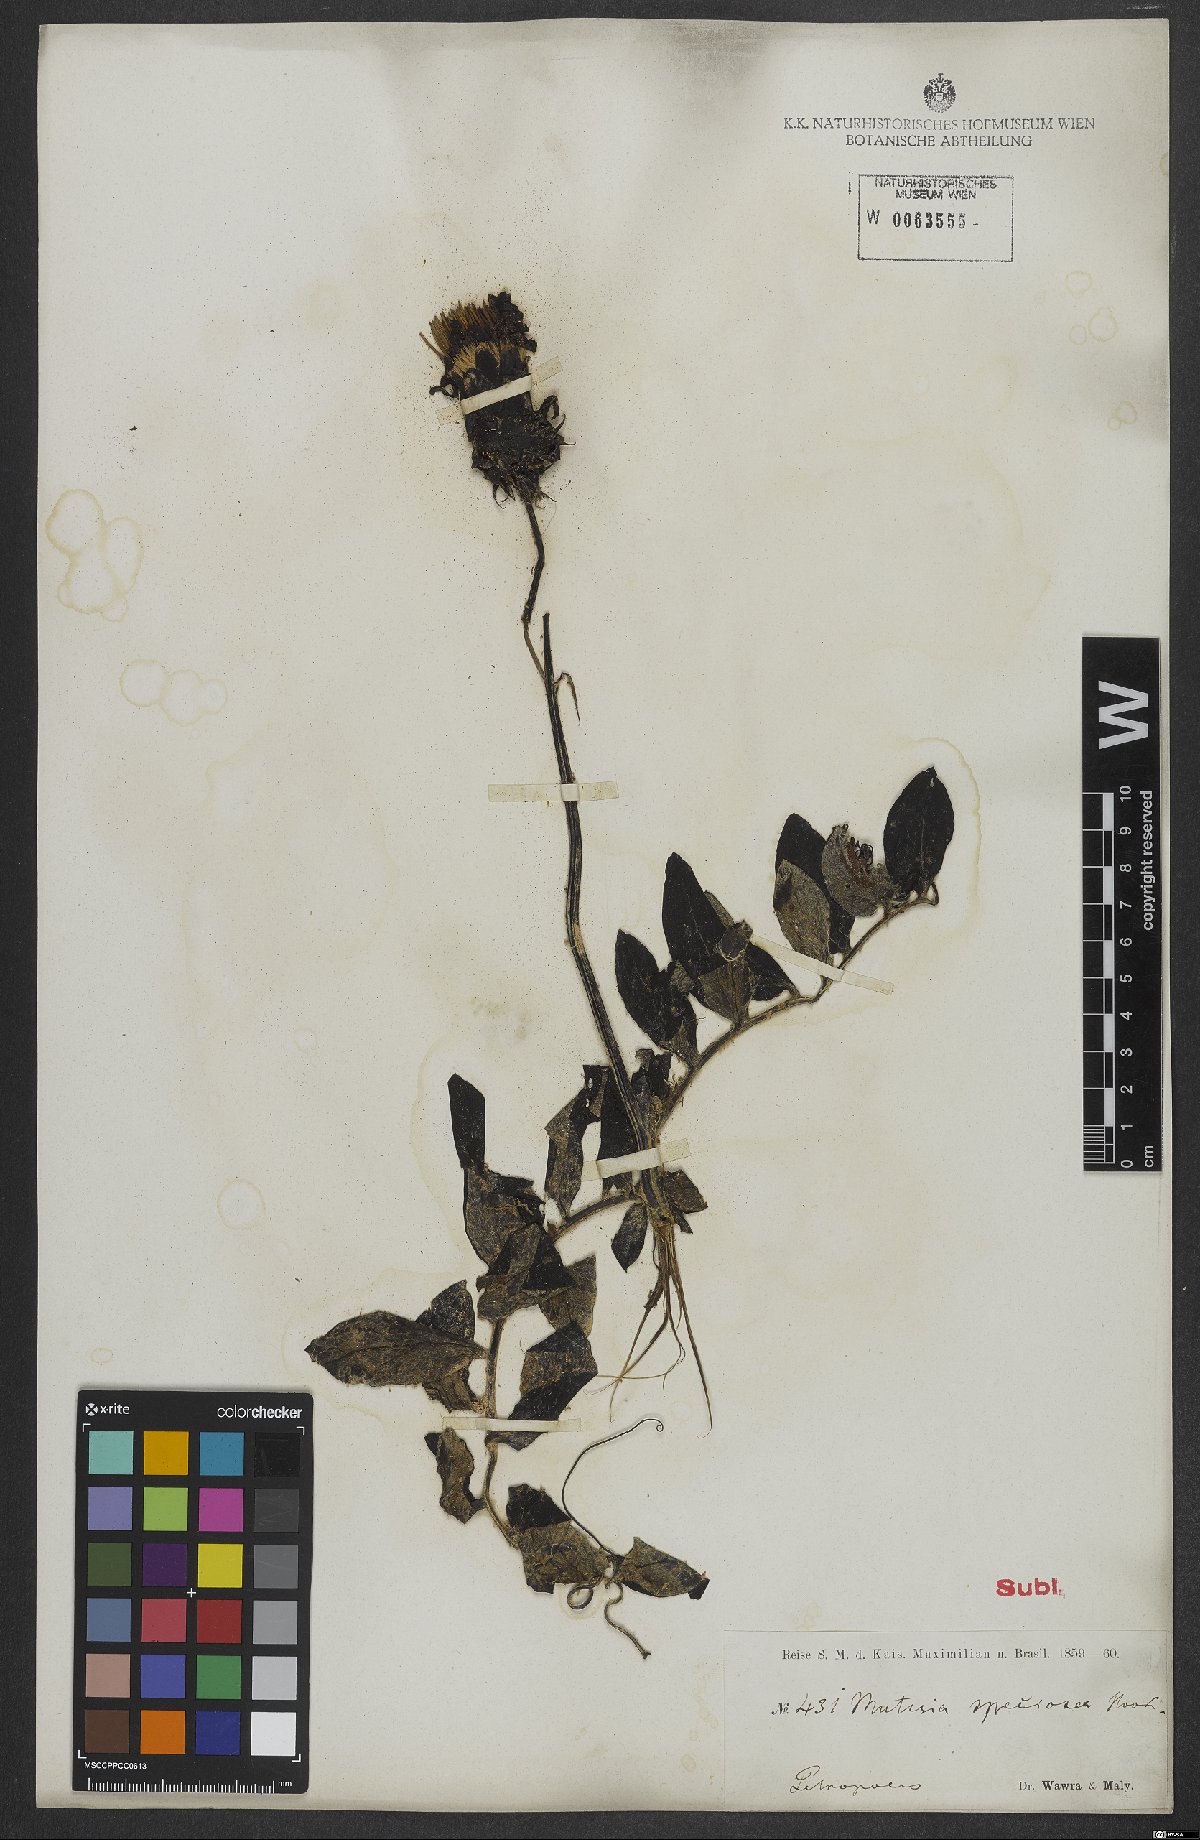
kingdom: Plantae
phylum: Tracheophyta
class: Magnoliopsida
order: Asterales
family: Asteraceae
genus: Mutisia
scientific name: Mutisia speciosa
